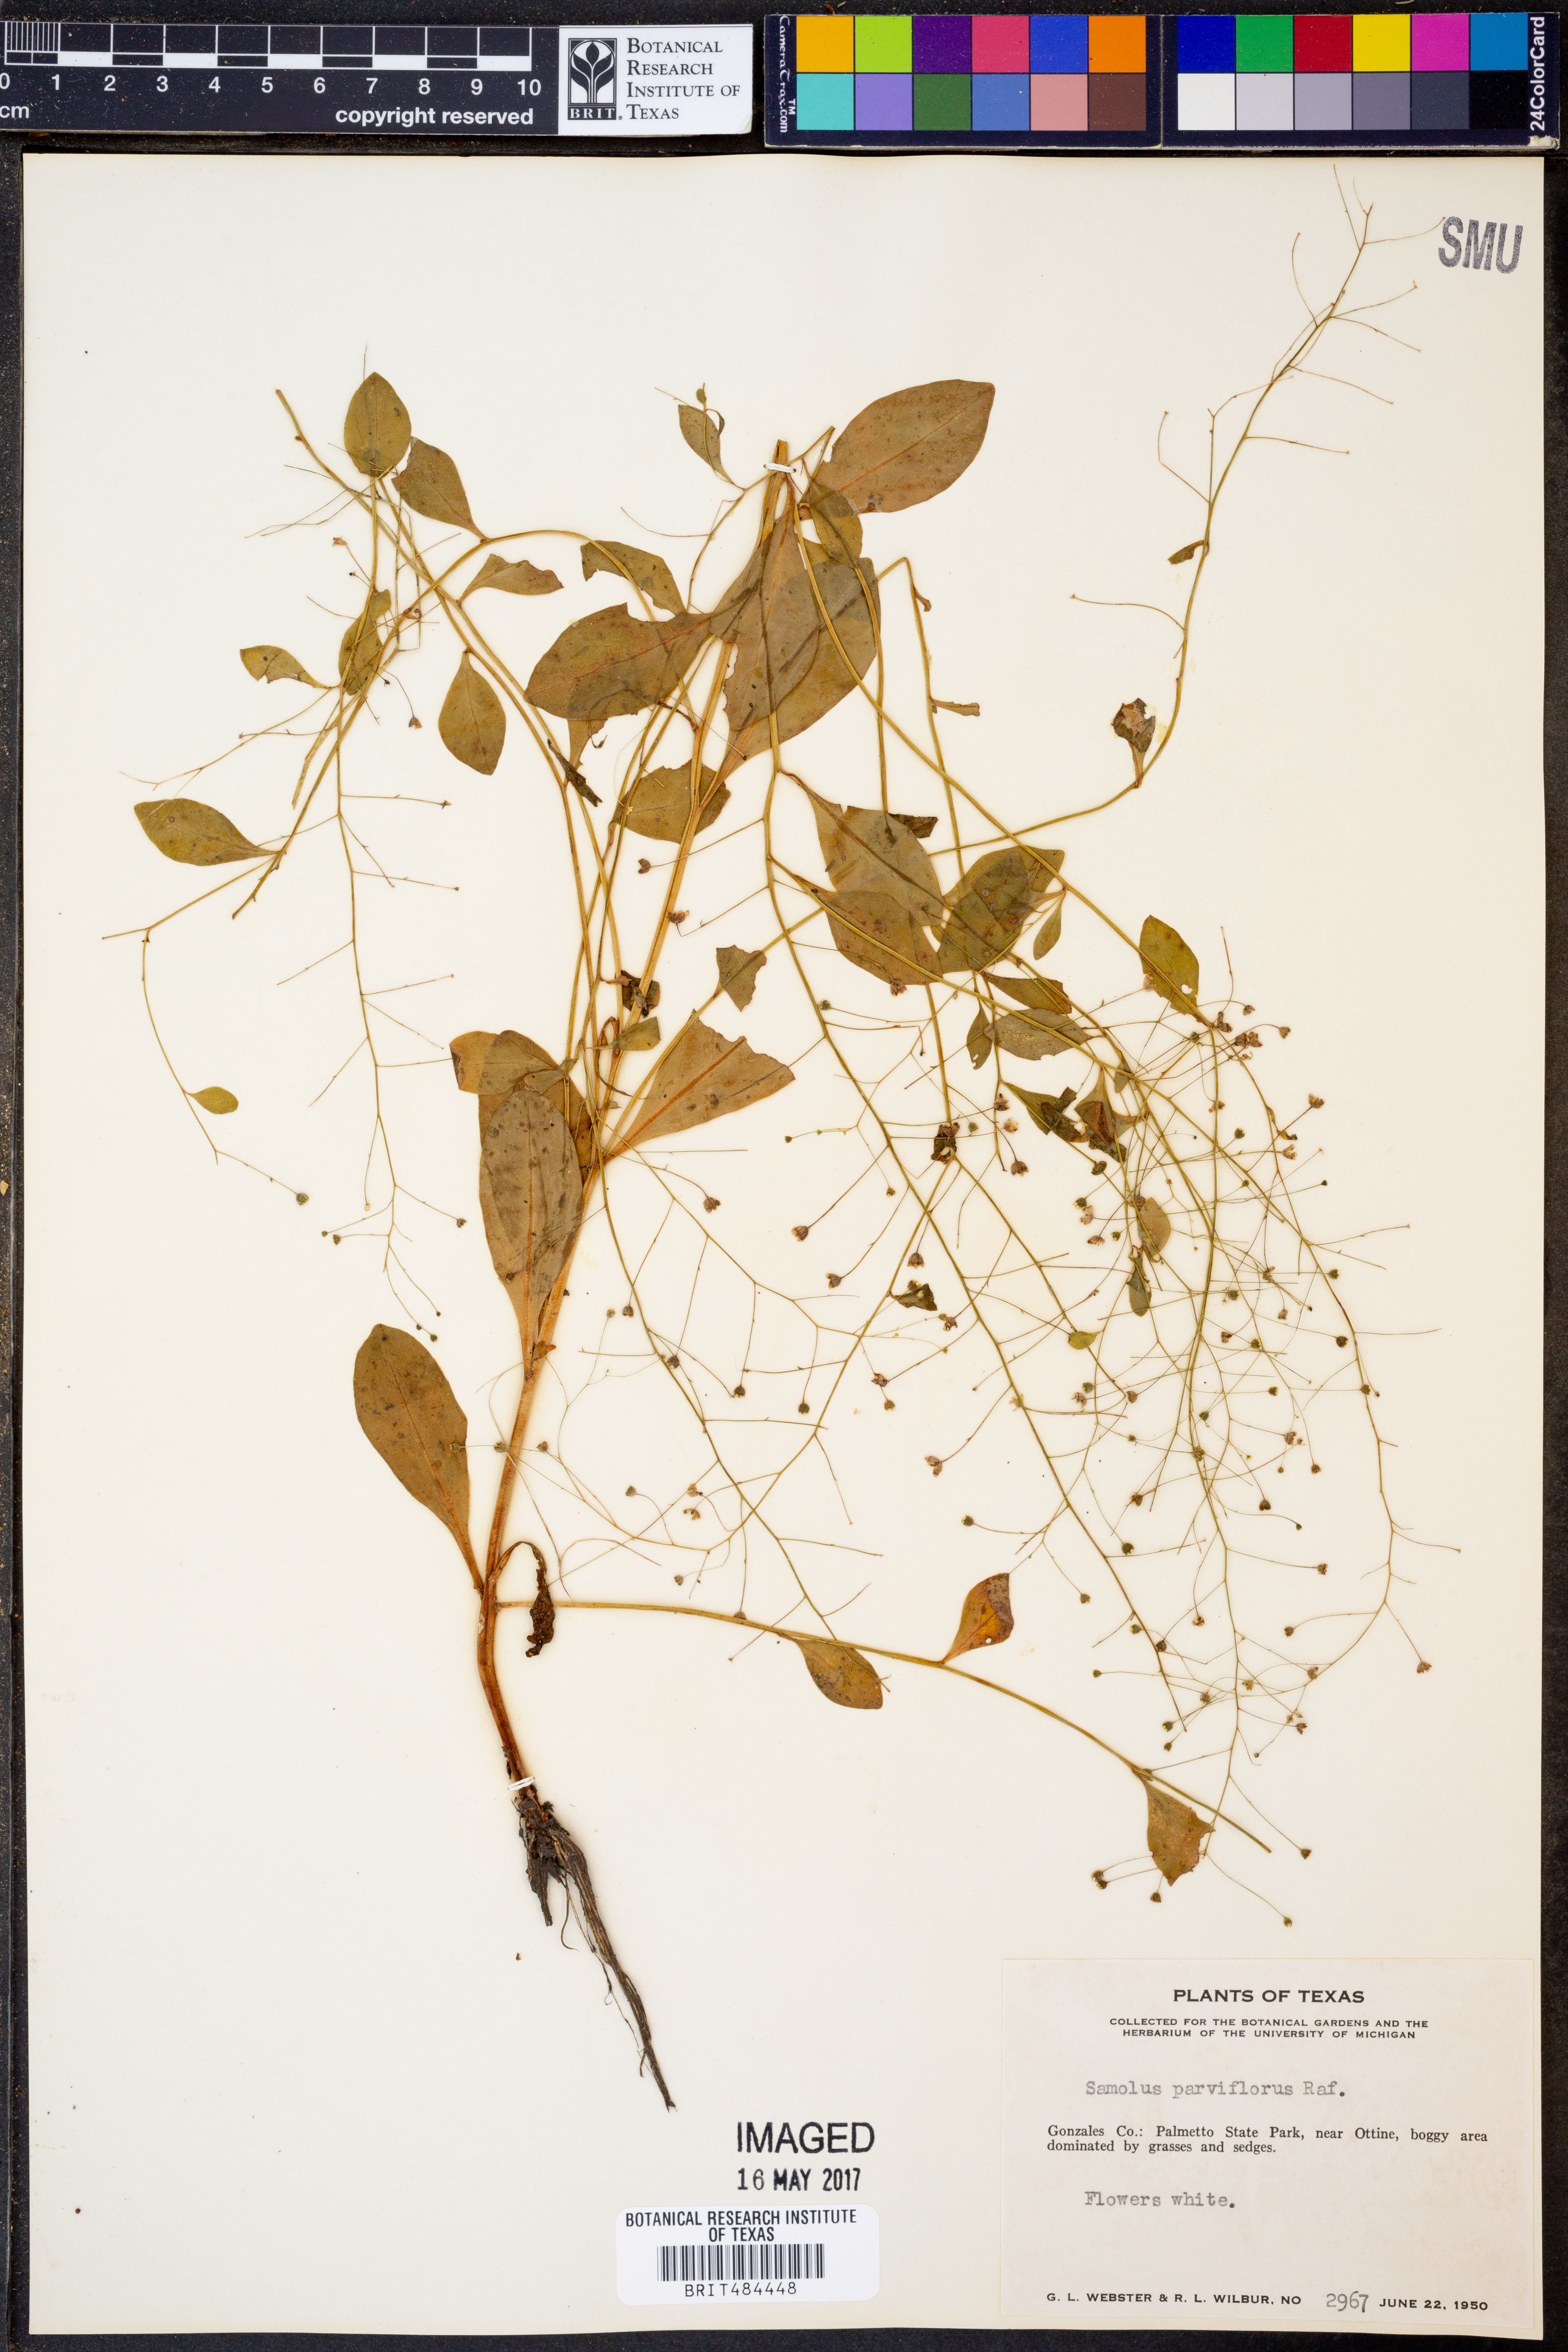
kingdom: Plantae
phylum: Tracheophyta
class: Magnoliopsida
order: Ericales
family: Primulaceae
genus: Samolus
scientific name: Samolus parviflorus
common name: False water pimpernel
